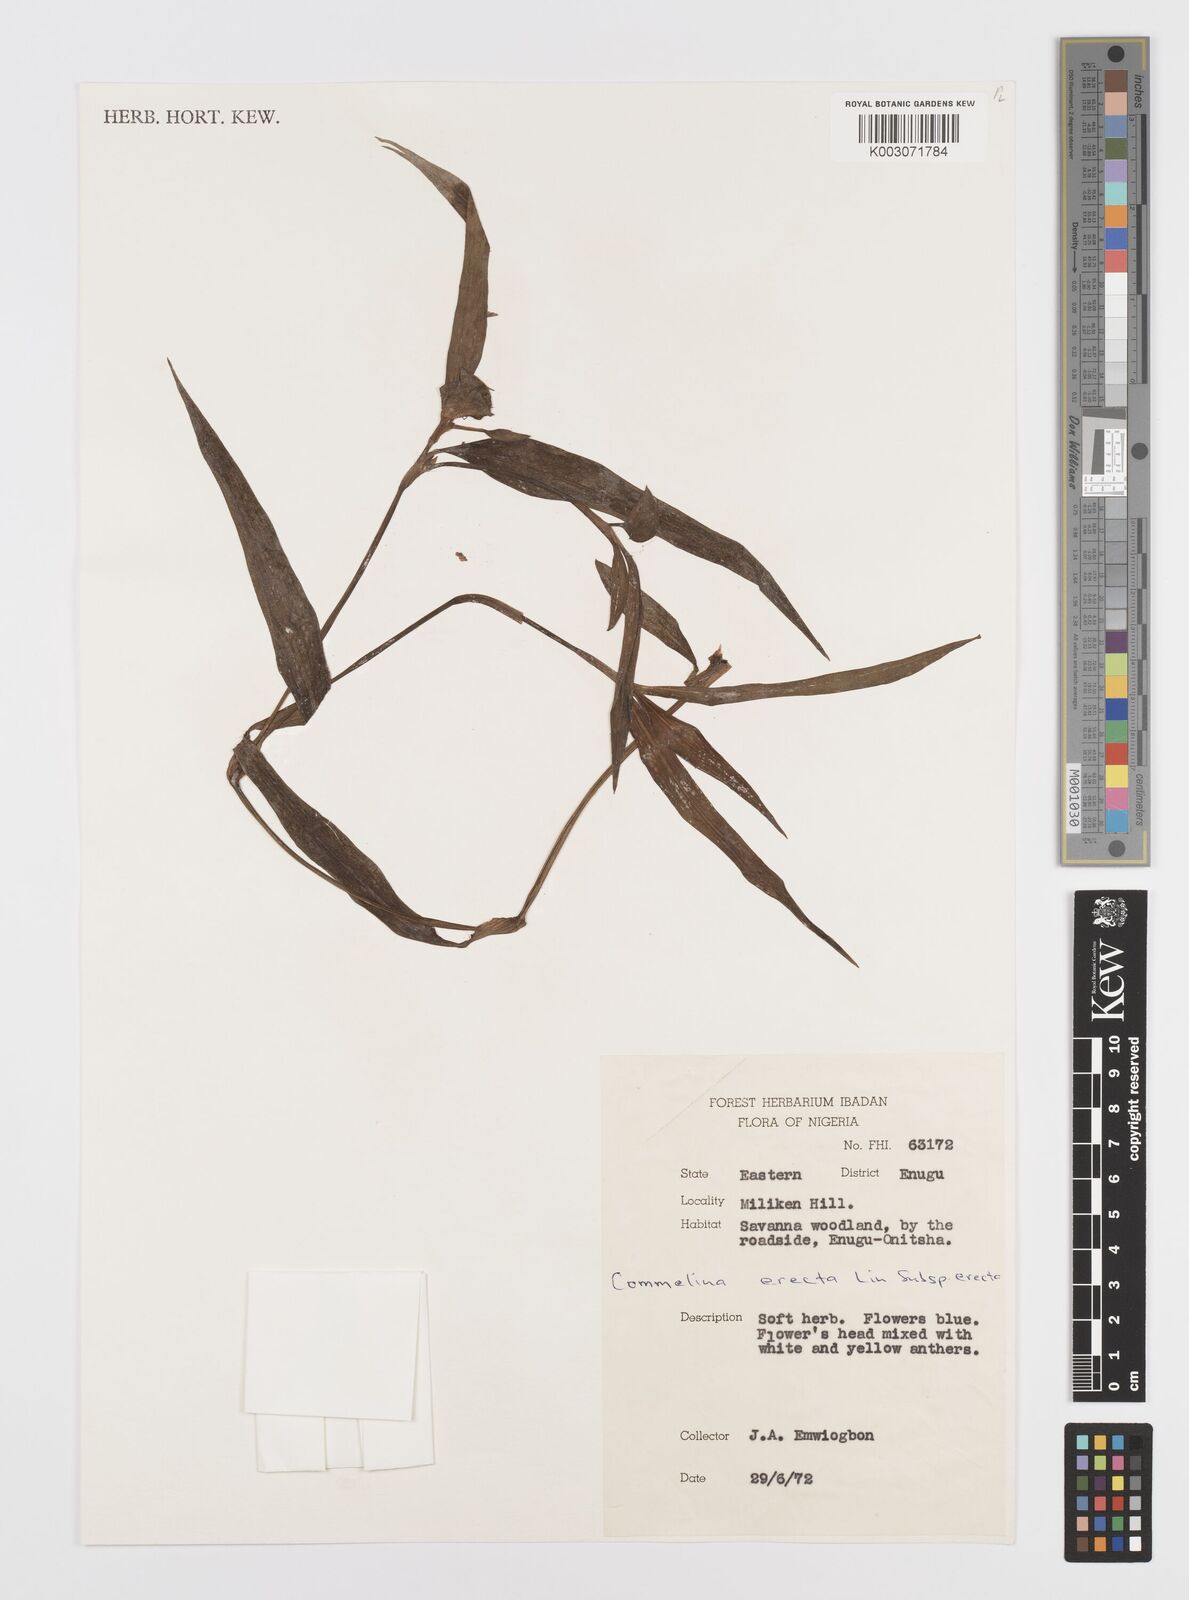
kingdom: Plantae
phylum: Tracheophyta
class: Liliopsida
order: Commelinales
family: Commelinaceae
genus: Commelina
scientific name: Commelina erecta
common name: Blousel blommetjie
